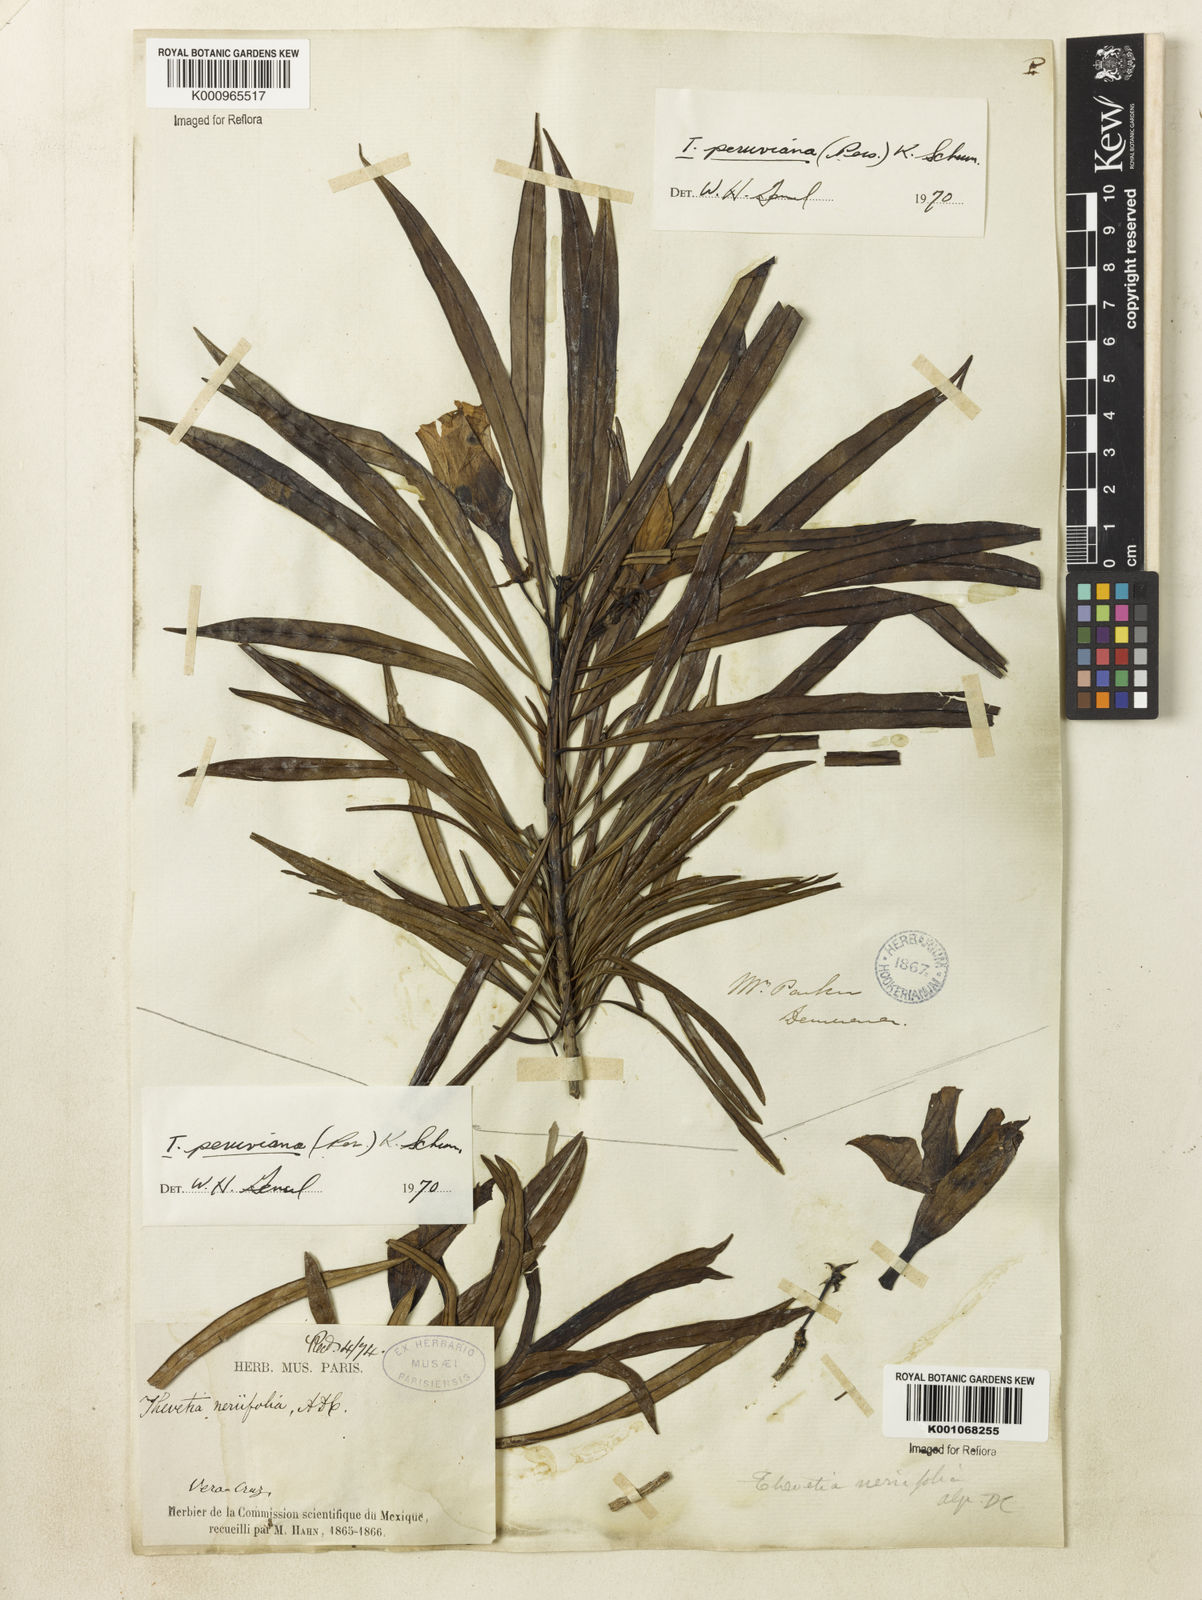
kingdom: Plantae
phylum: Tracheophyta
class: Magnoliopsida
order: Gentianales
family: Apocynaceae
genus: Cascabela
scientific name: Cascabela thevetia
